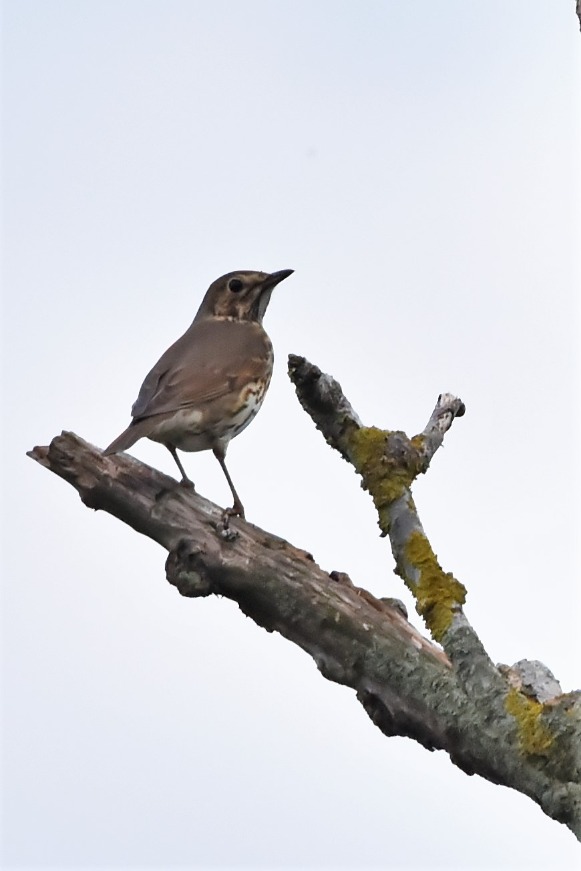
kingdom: Animalia
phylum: Chordata
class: Aves
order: Passeriformes
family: Turdidae
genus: Turdus
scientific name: Turdus philomelos
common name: Sangdrossel
